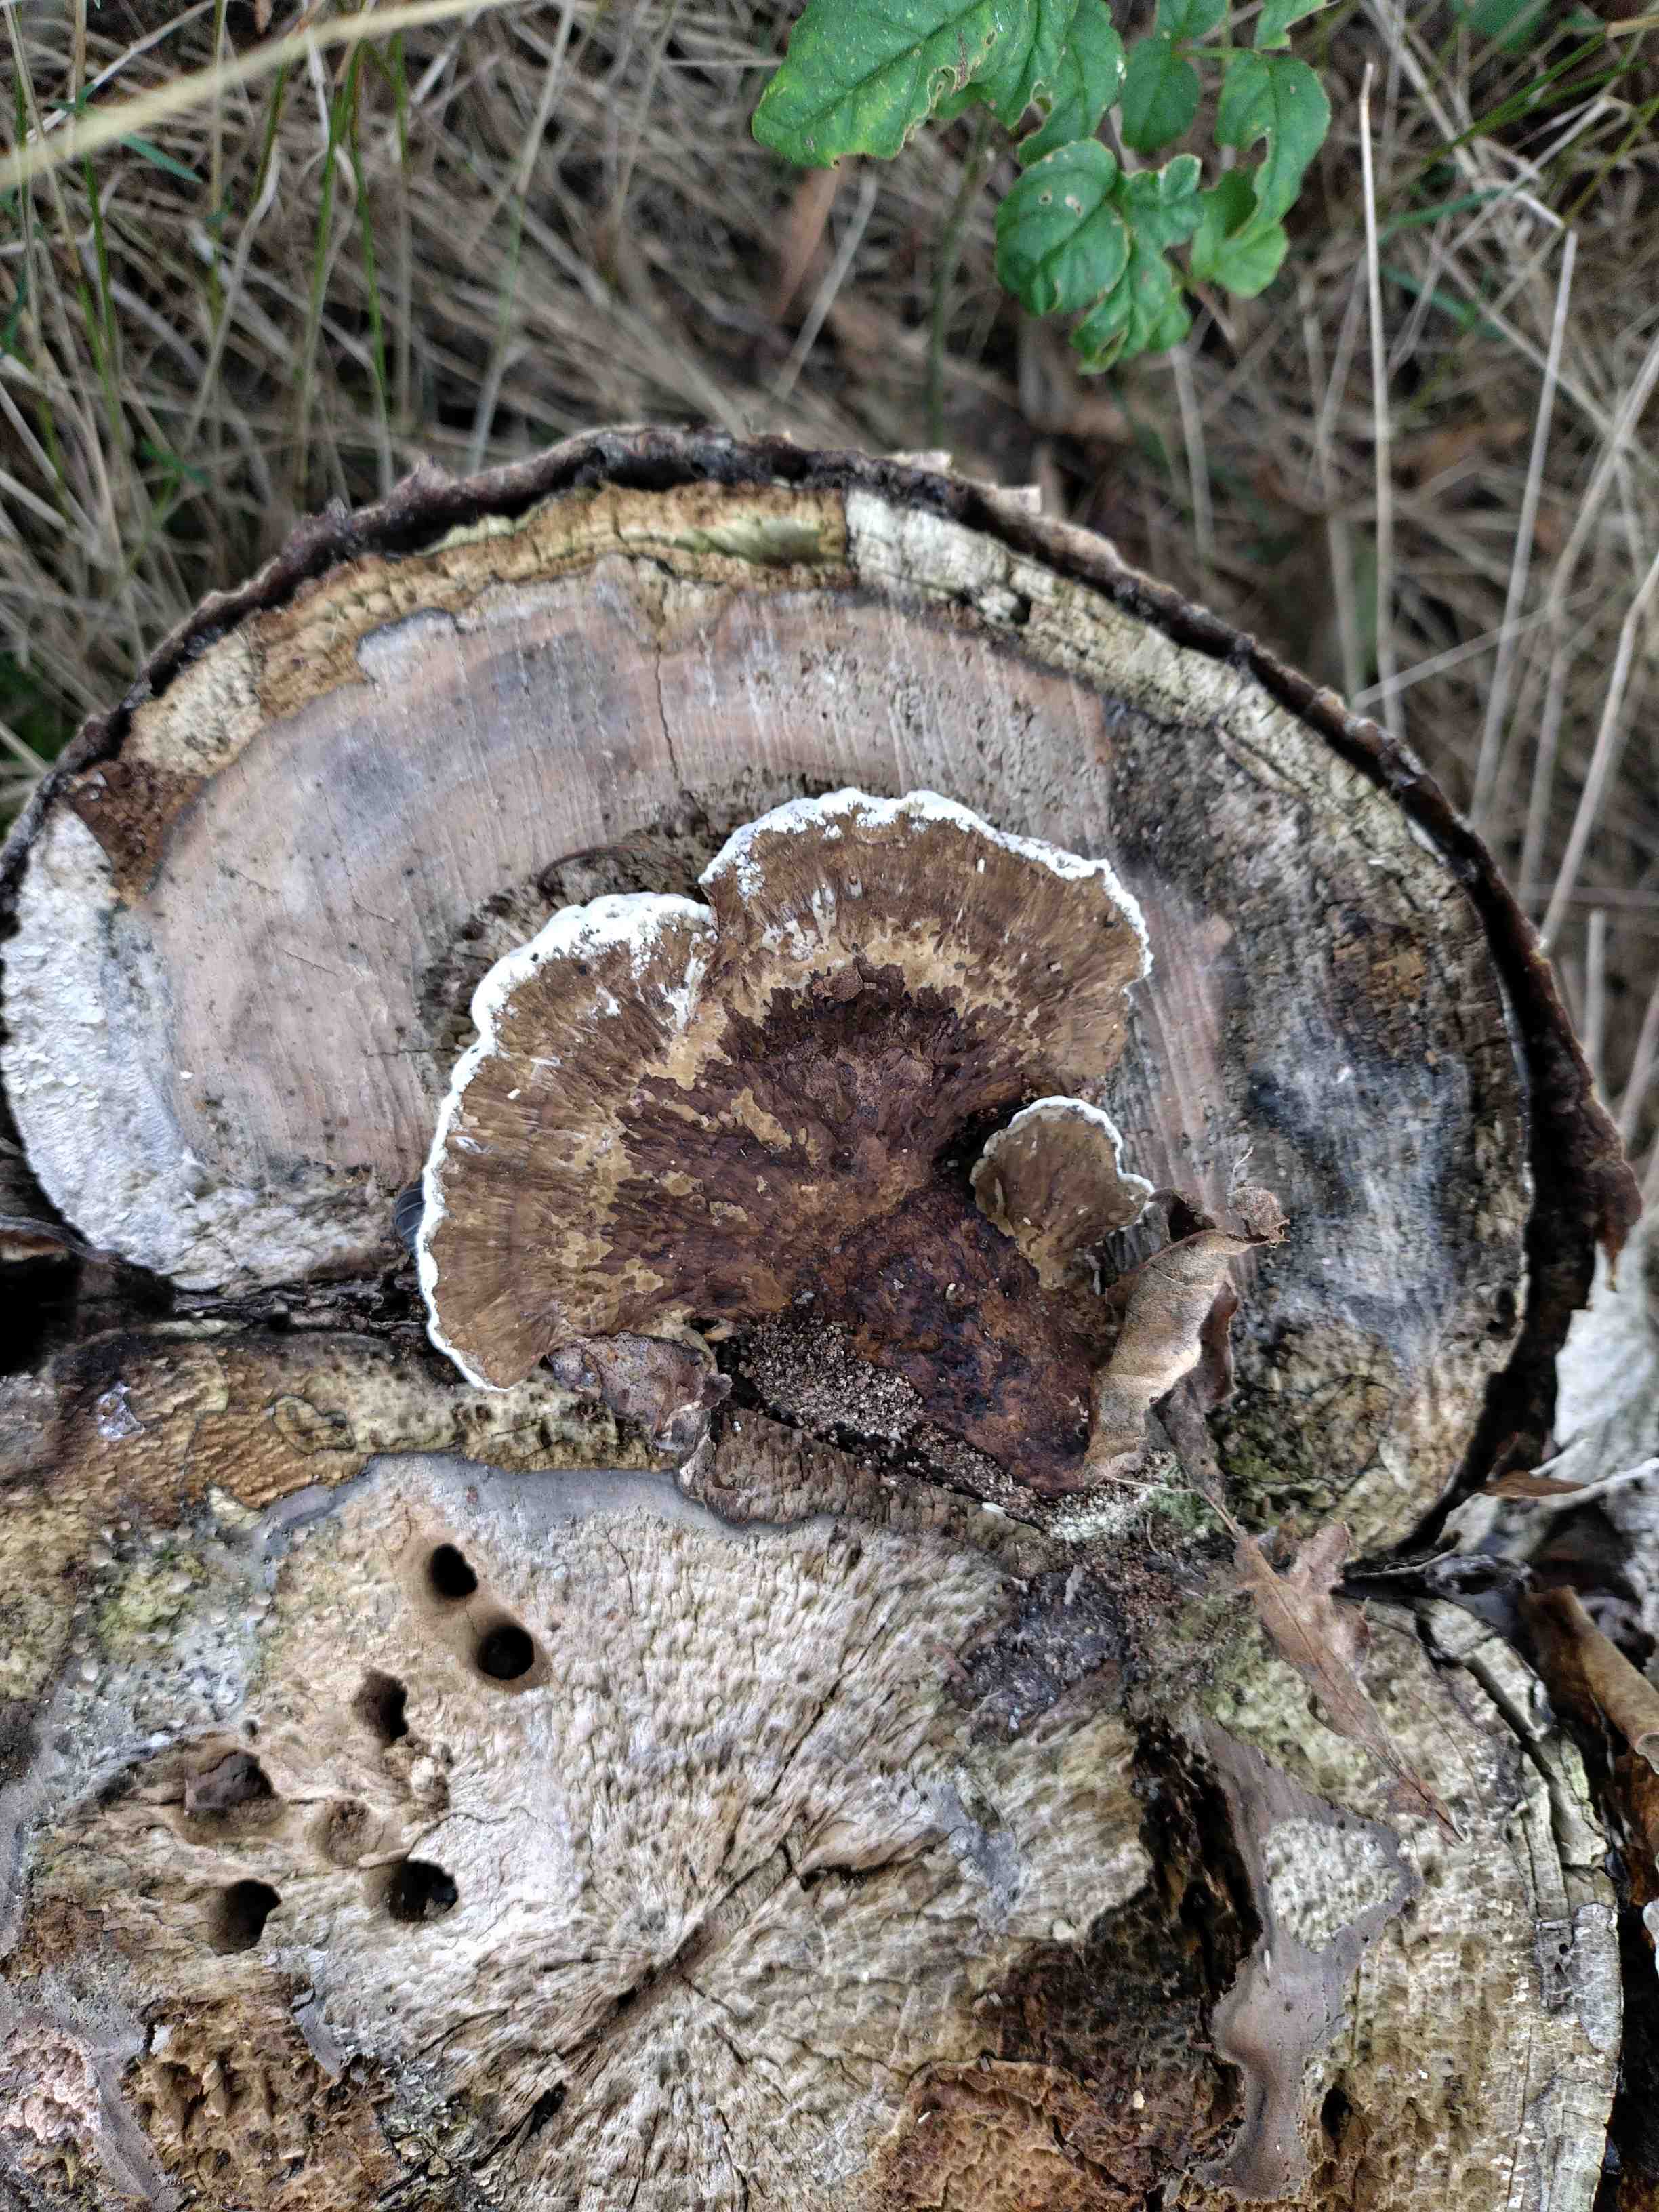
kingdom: Fungi
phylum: Basidiomycota
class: Agaricomycetes
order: Polyporales
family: Polyporaceae
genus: Daedaleopsis
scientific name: Daedaleopsis confragosa
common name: rødmende læderporesvamp
